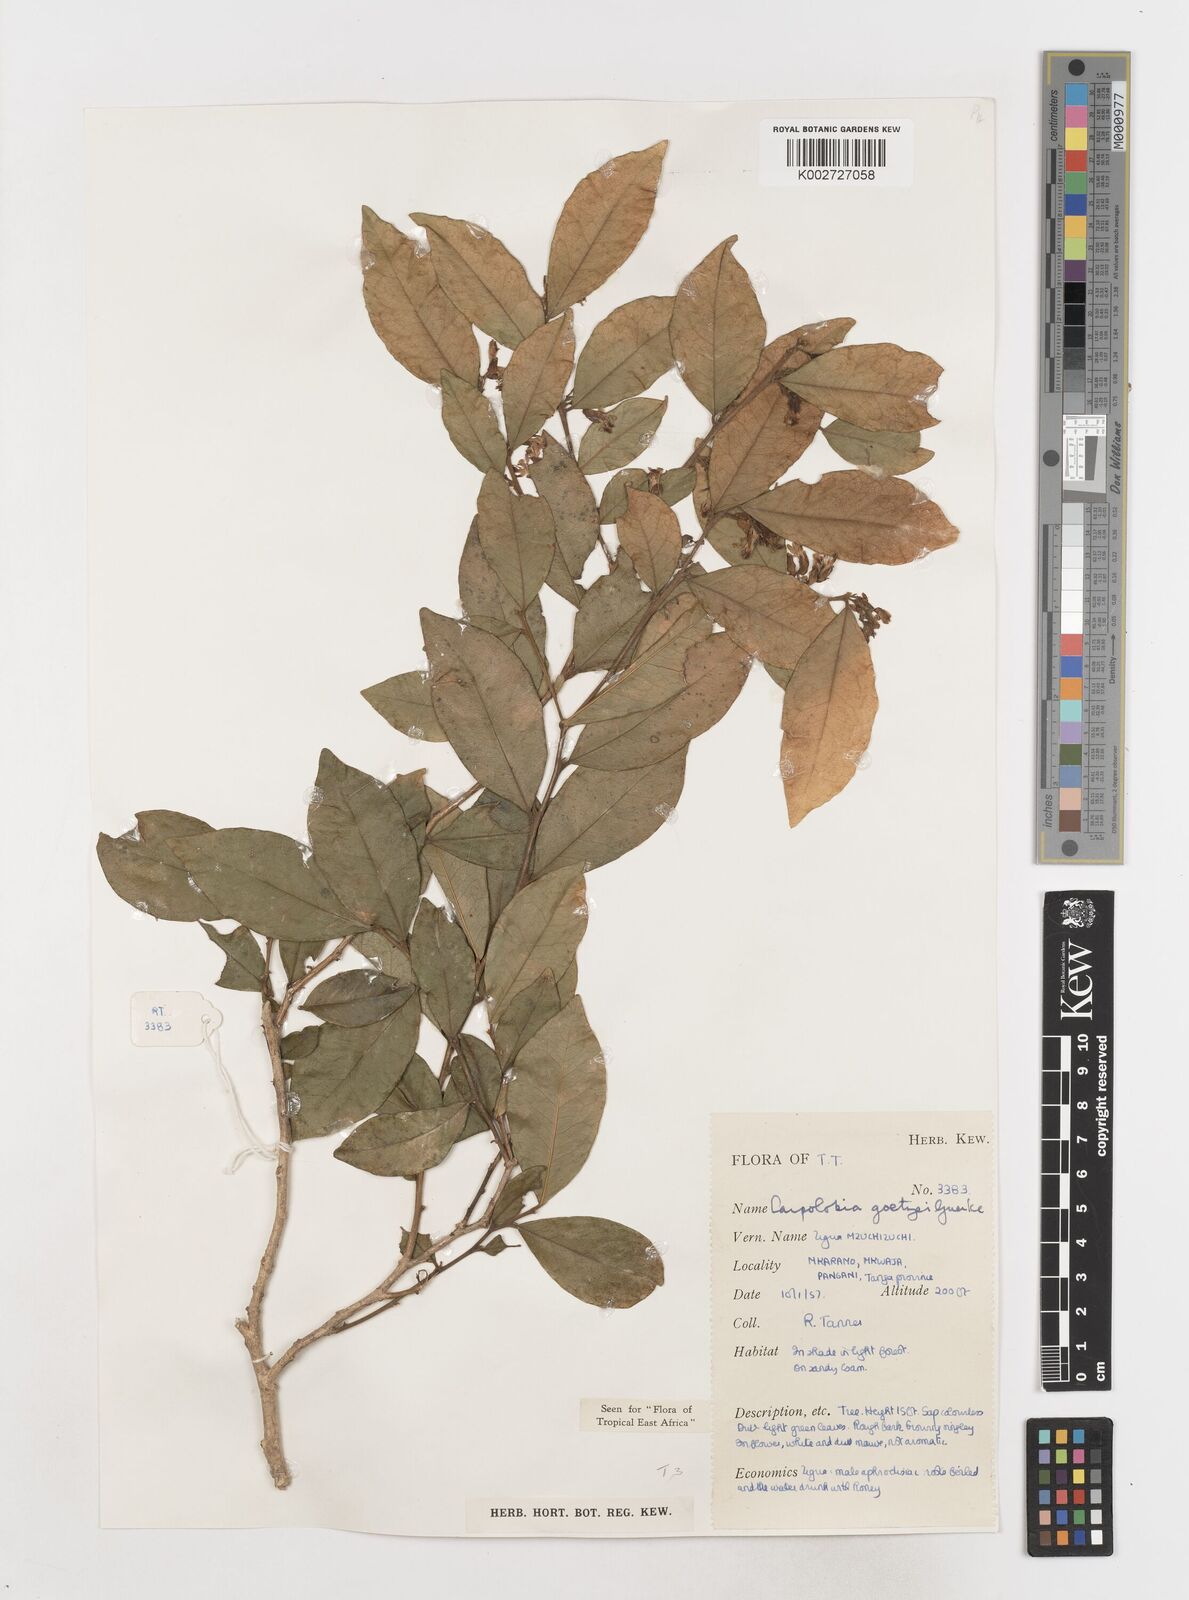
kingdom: Plantae
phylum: Tracheophyta
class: Magnoliopsida
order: Fabales
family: Polygalaceae
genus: Carpolobia
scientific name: Carpolobia goetzei
